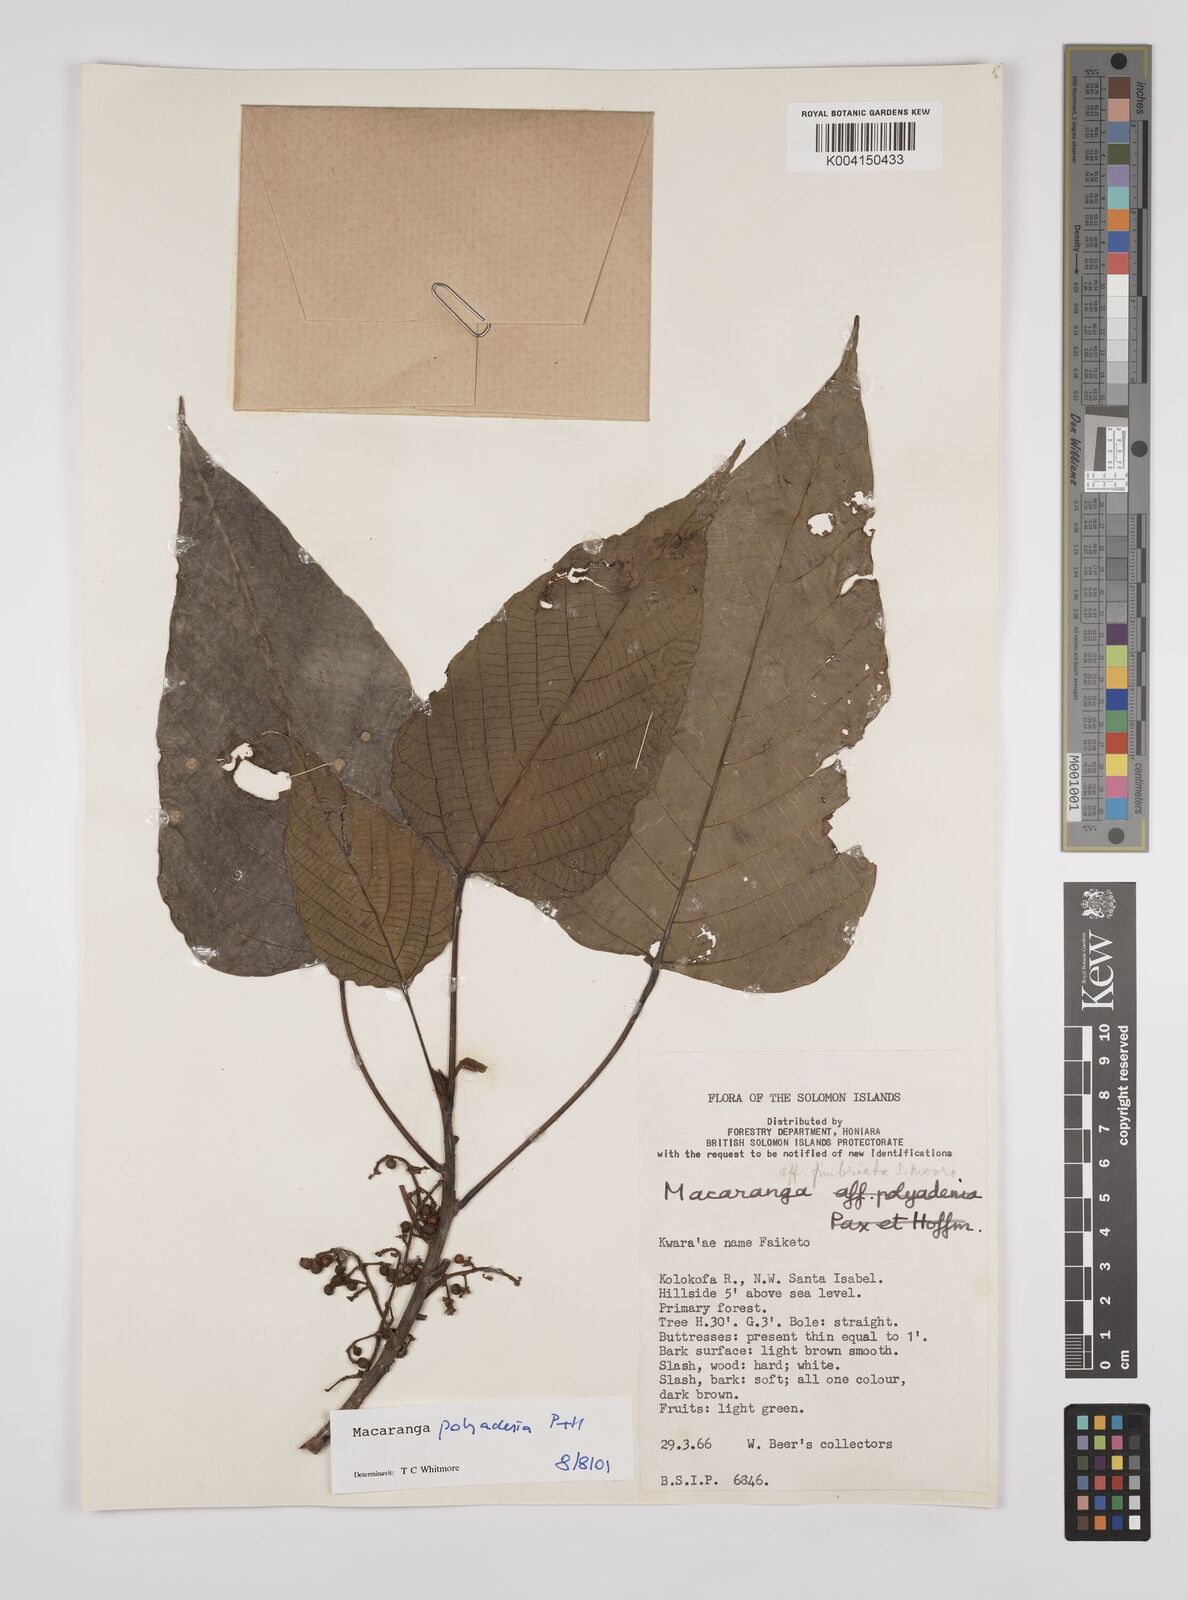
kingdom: Plantae
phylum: Tracheophyta
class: Magnoliopsida
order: Malpighiales
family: Euphorbiaceae
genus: Macaranga
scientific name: Macaranga polyadenia
